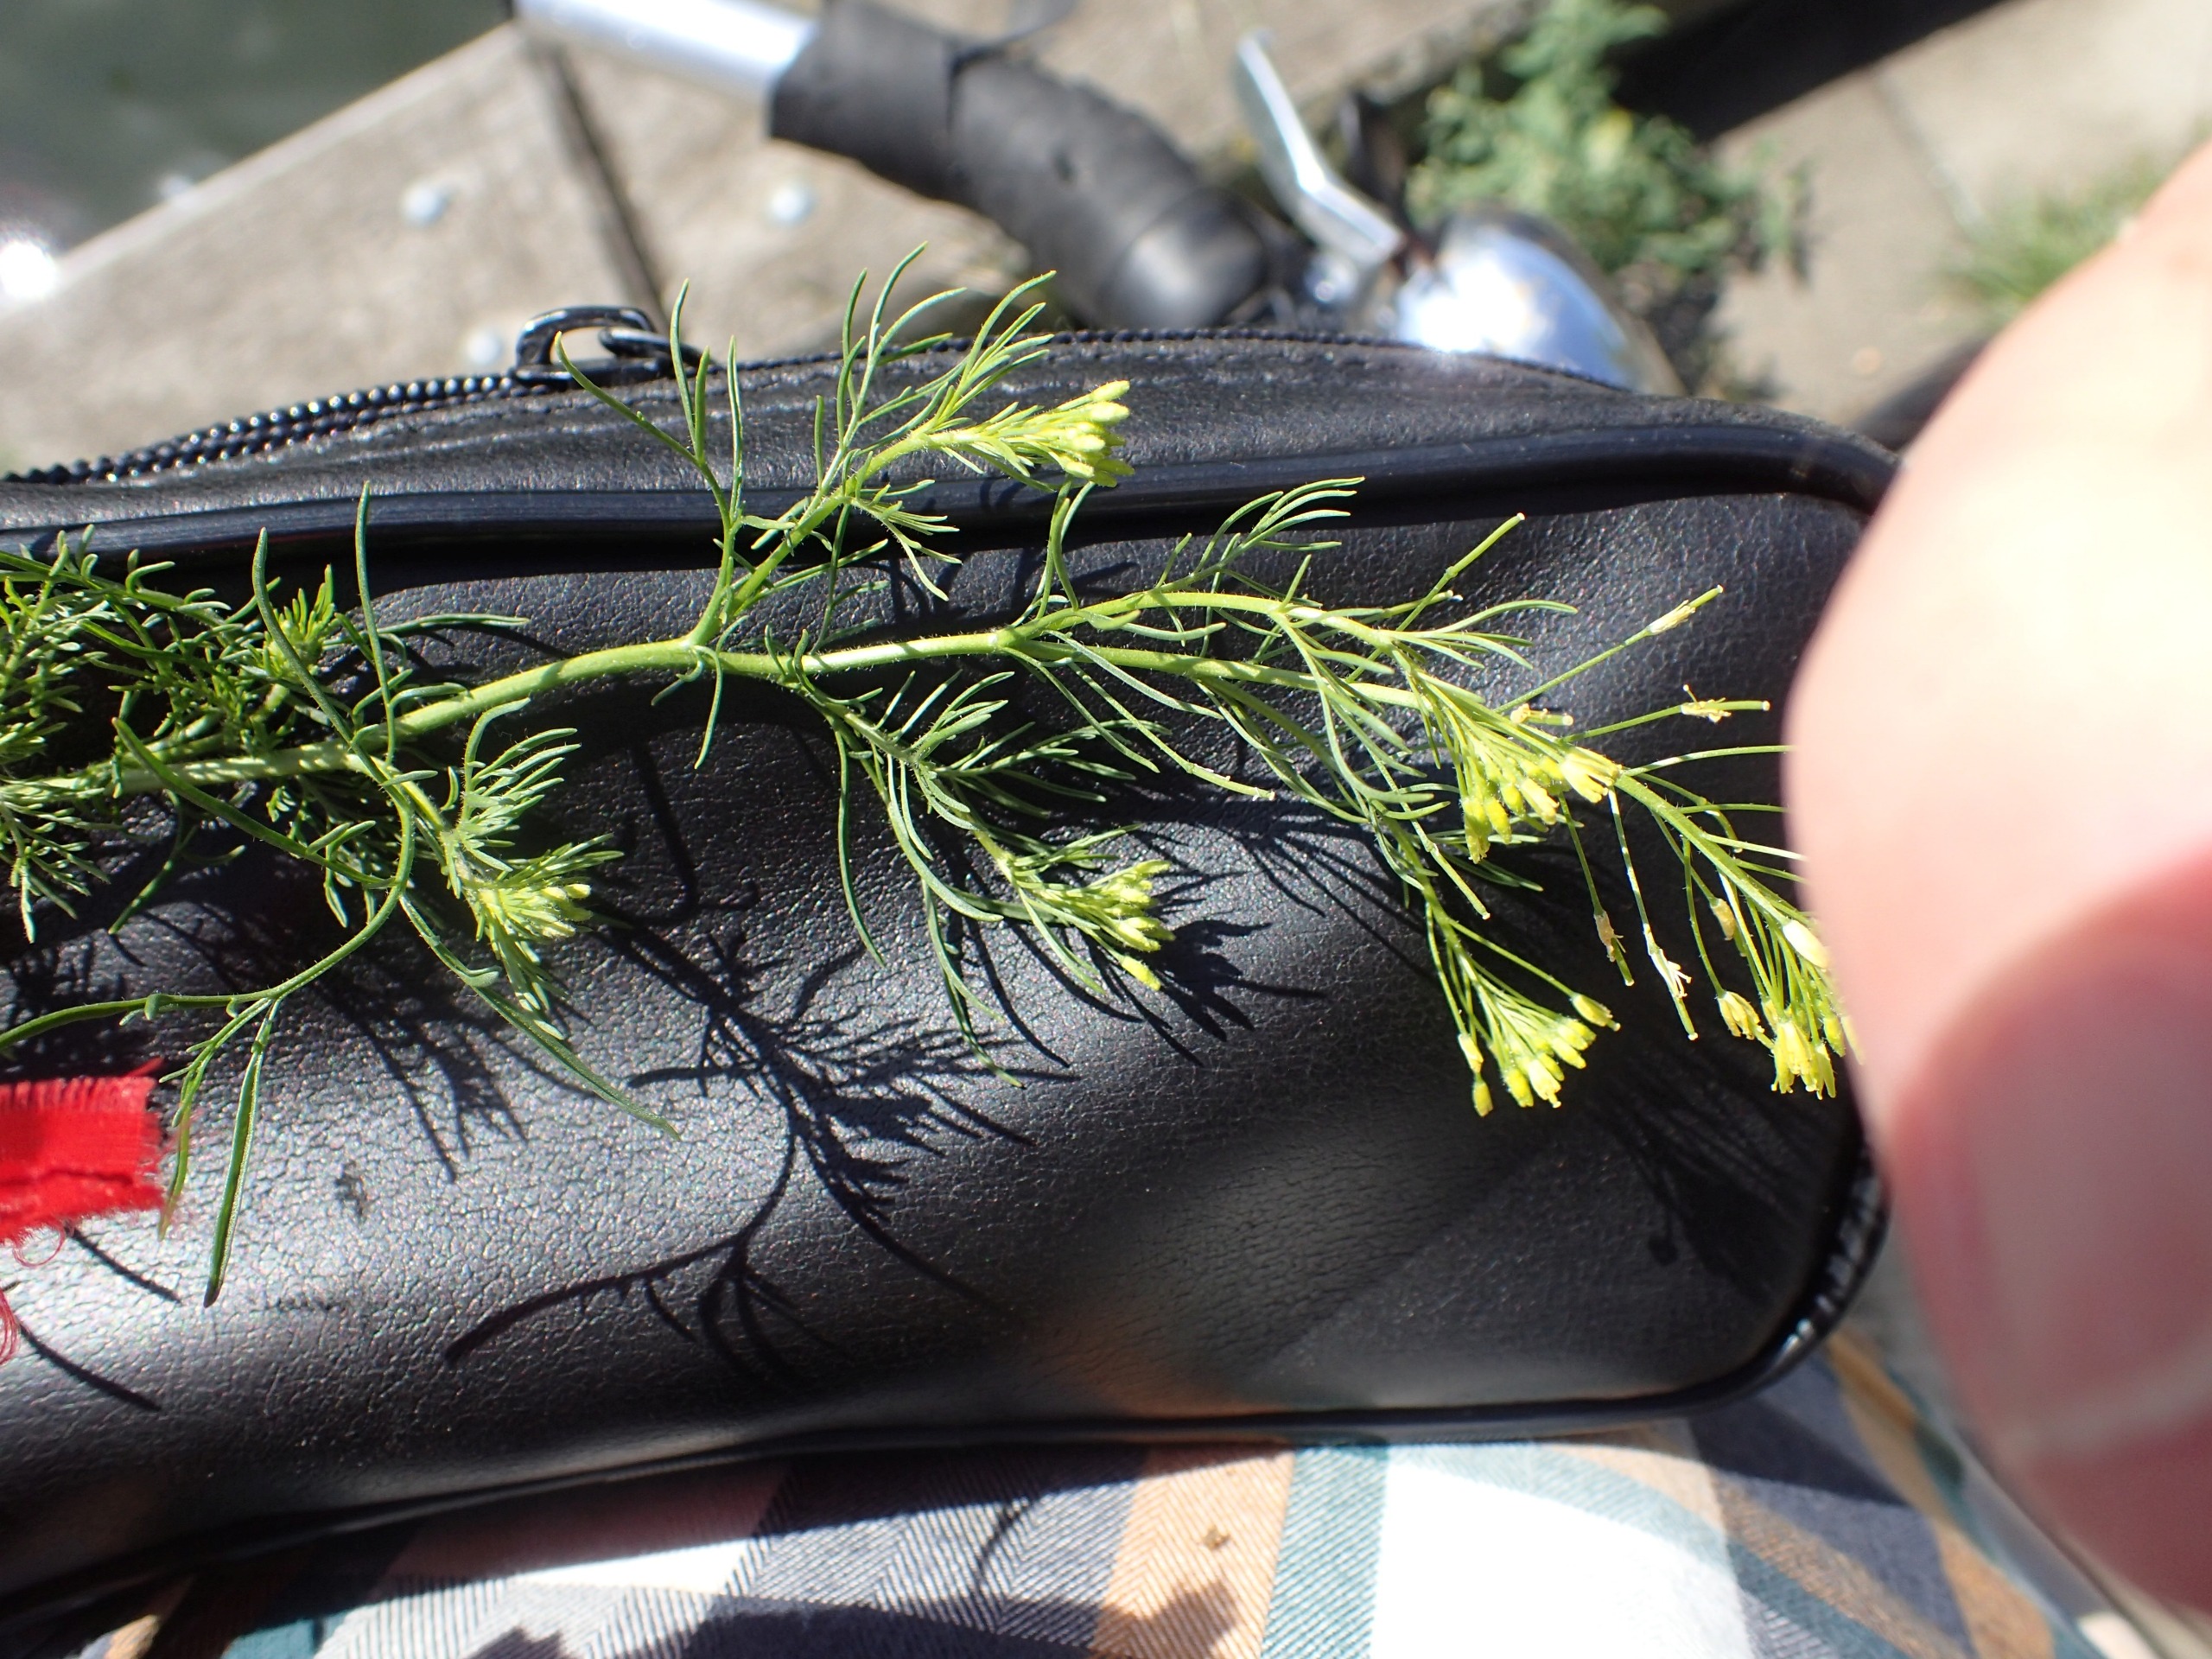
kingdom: Plantae
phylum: Tracheophyta
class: Magnoliopsida
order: Brassicales
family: Brassicaceae
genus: Descurainia
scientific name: Descurainia sophia
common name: Finbladet vejsennep
